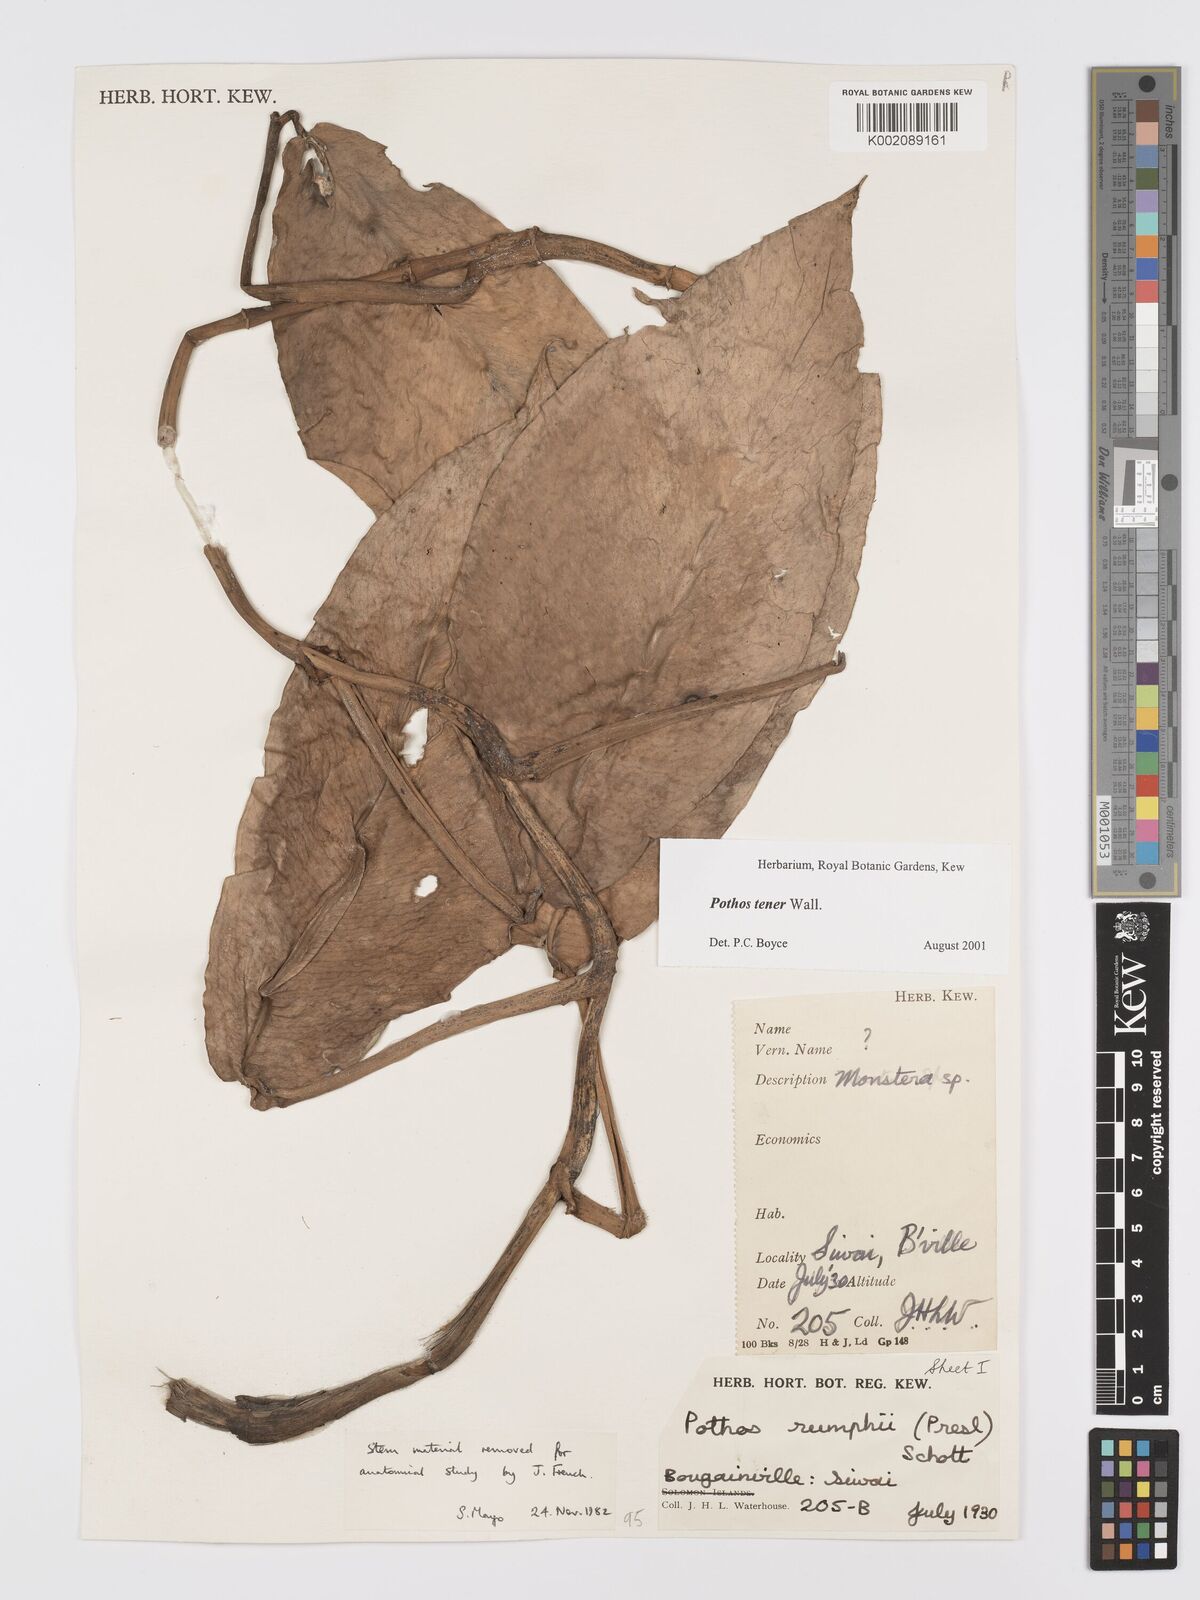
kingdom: Plantae
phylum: Tracheophyta
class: Liliopsida
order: Alismatales
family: Araceae
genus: Pothos
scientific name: Pothos tener
